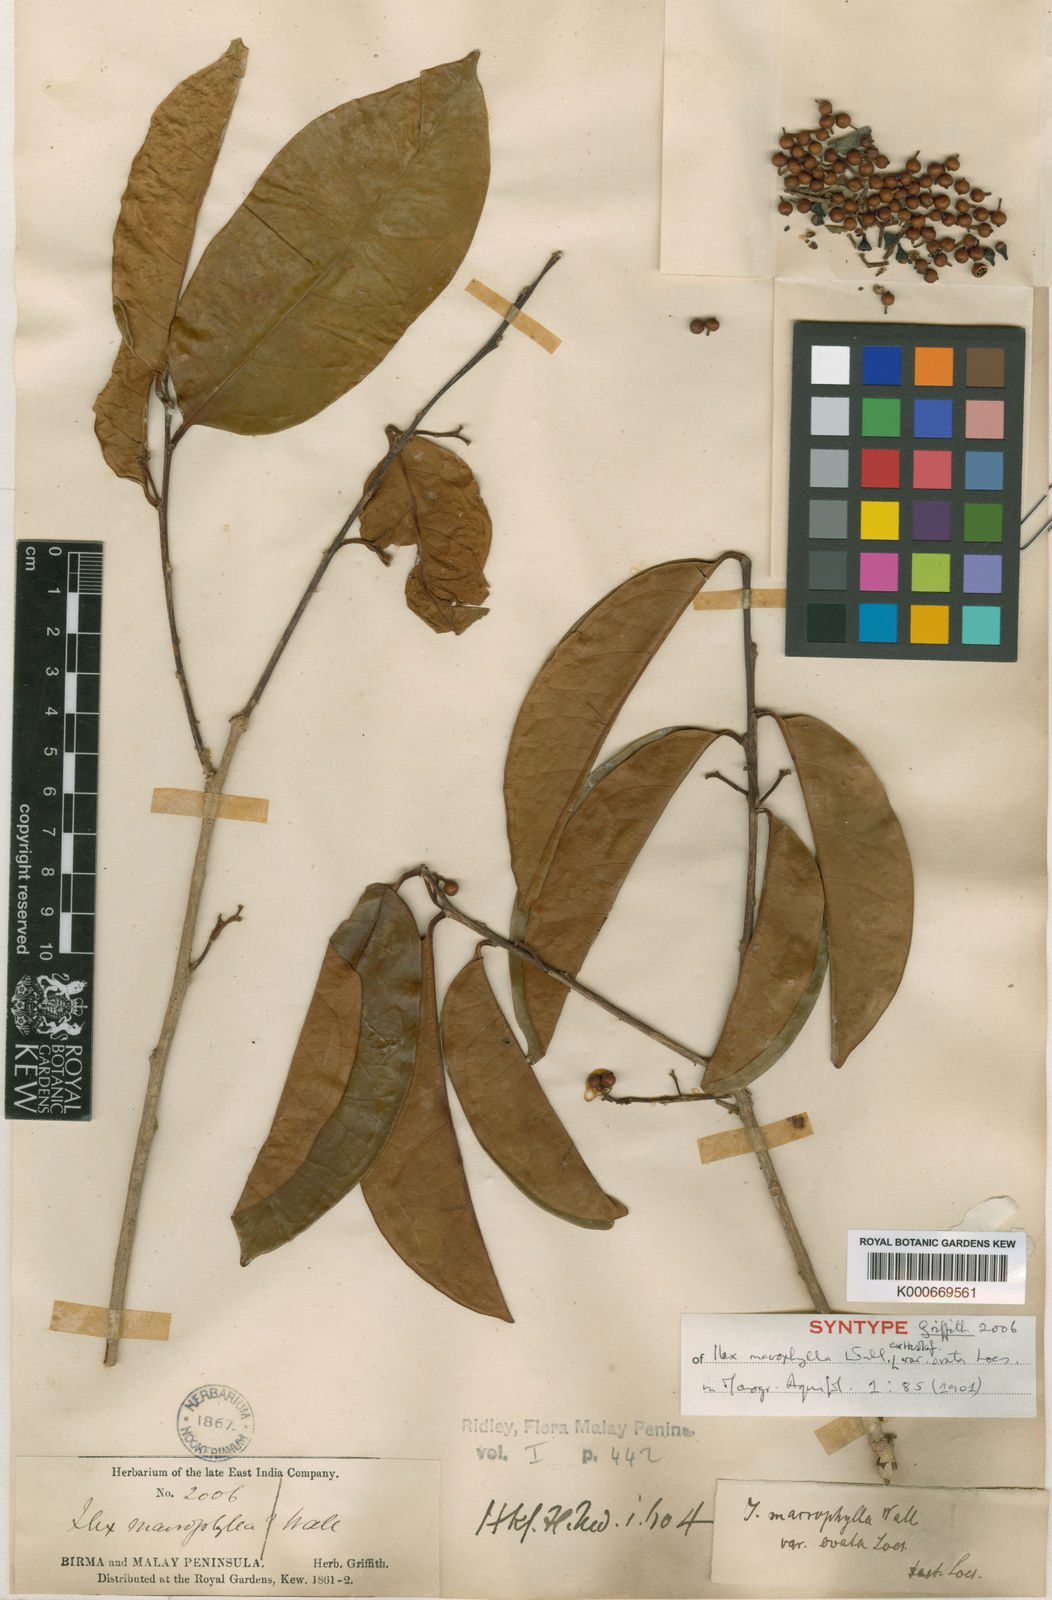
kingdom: Plantae
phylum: Tracheophyta
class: Magnoliopsida
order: Aquifoliales
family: Aquifoliaceae
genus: Ilex
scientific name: Ilex
